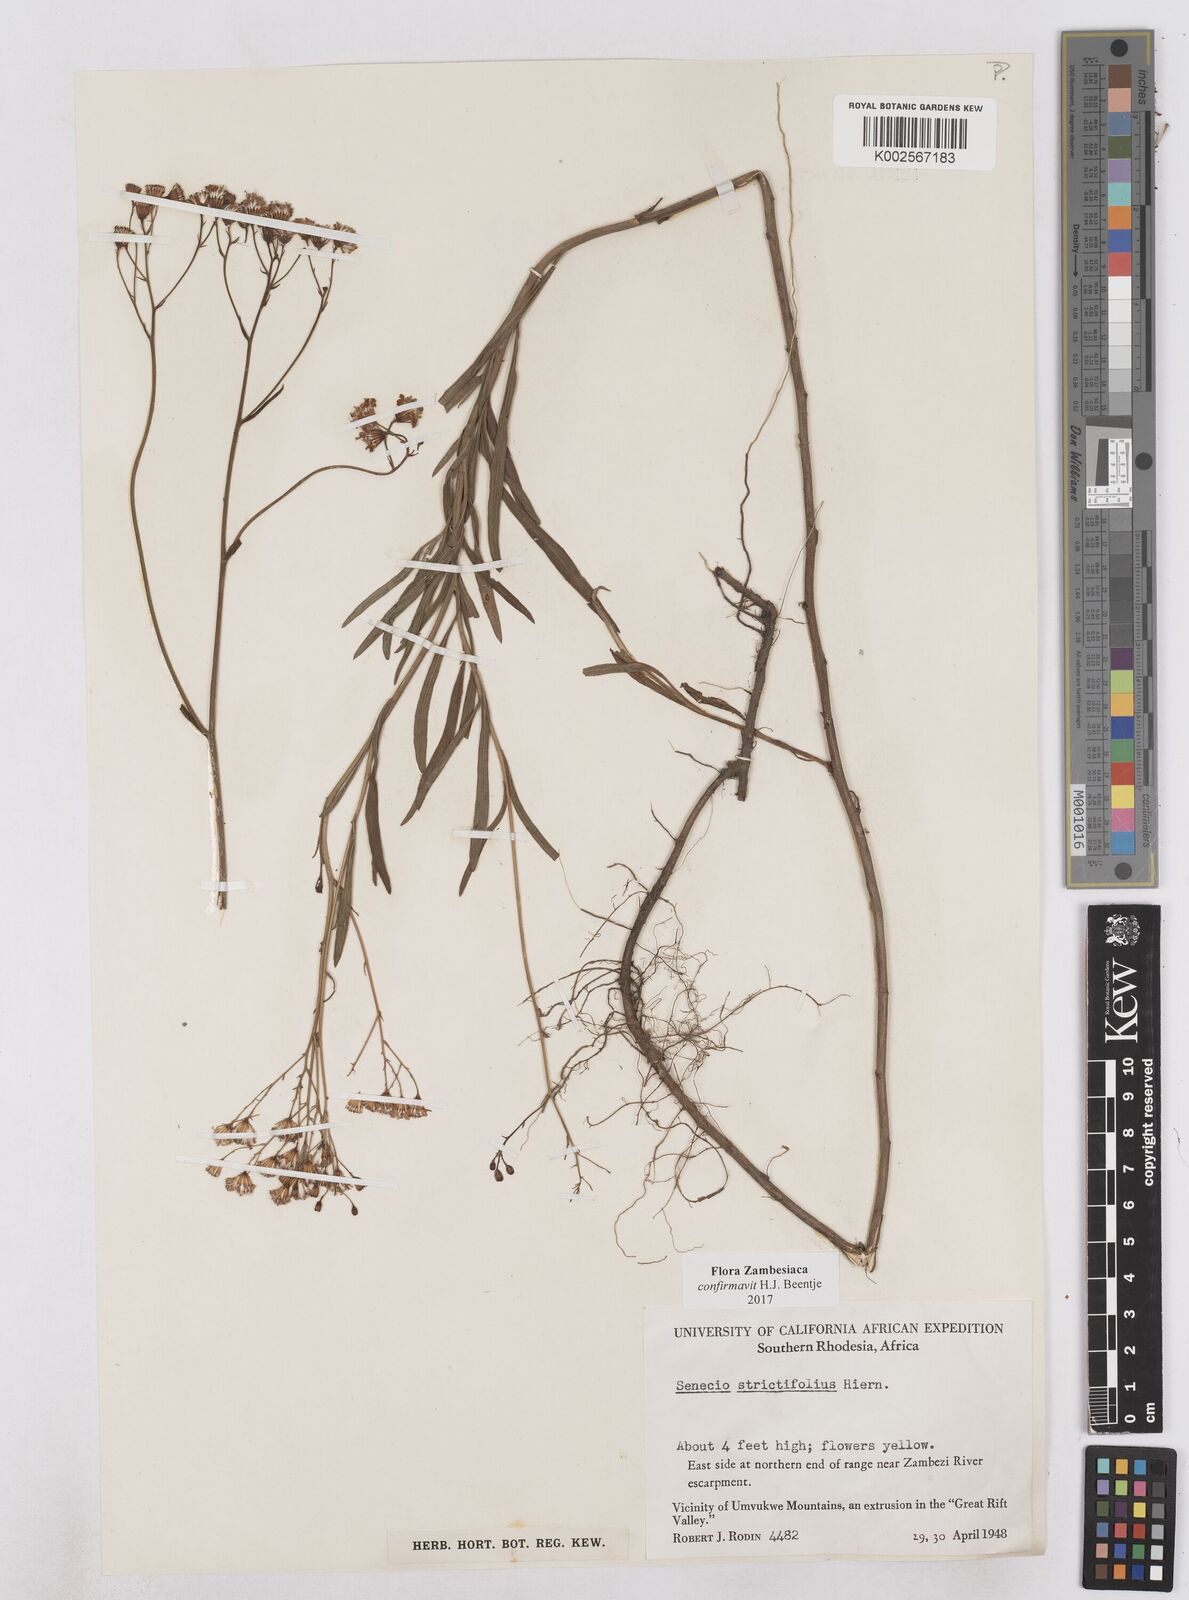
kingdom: Plantae
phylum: Tracheophyta
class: Magnoliopsida
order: Asterales
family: Asteraceae
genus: Senecio
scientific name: Senecio strictifolius
